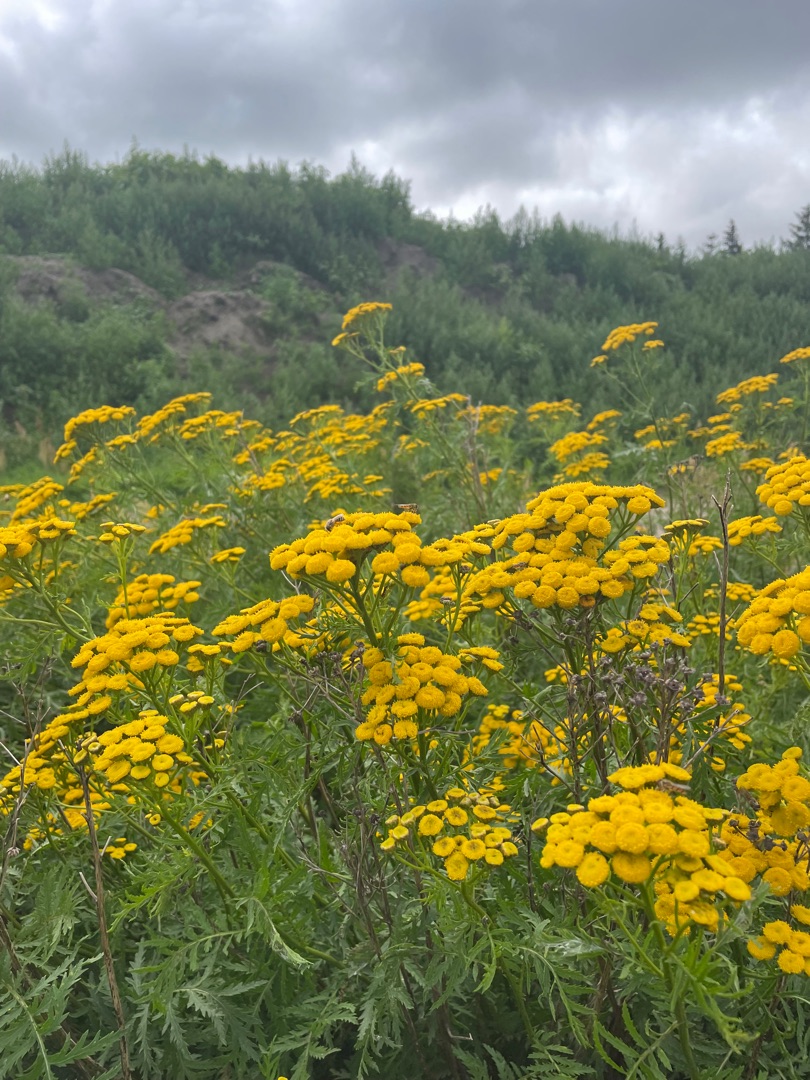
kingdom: Plantae
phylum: Tracheophyta
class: Magnoliopsida
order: Asterales
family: Asteraceae
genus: Tanacetum
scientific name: Tanacetum vulgare
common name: Rejnfan
